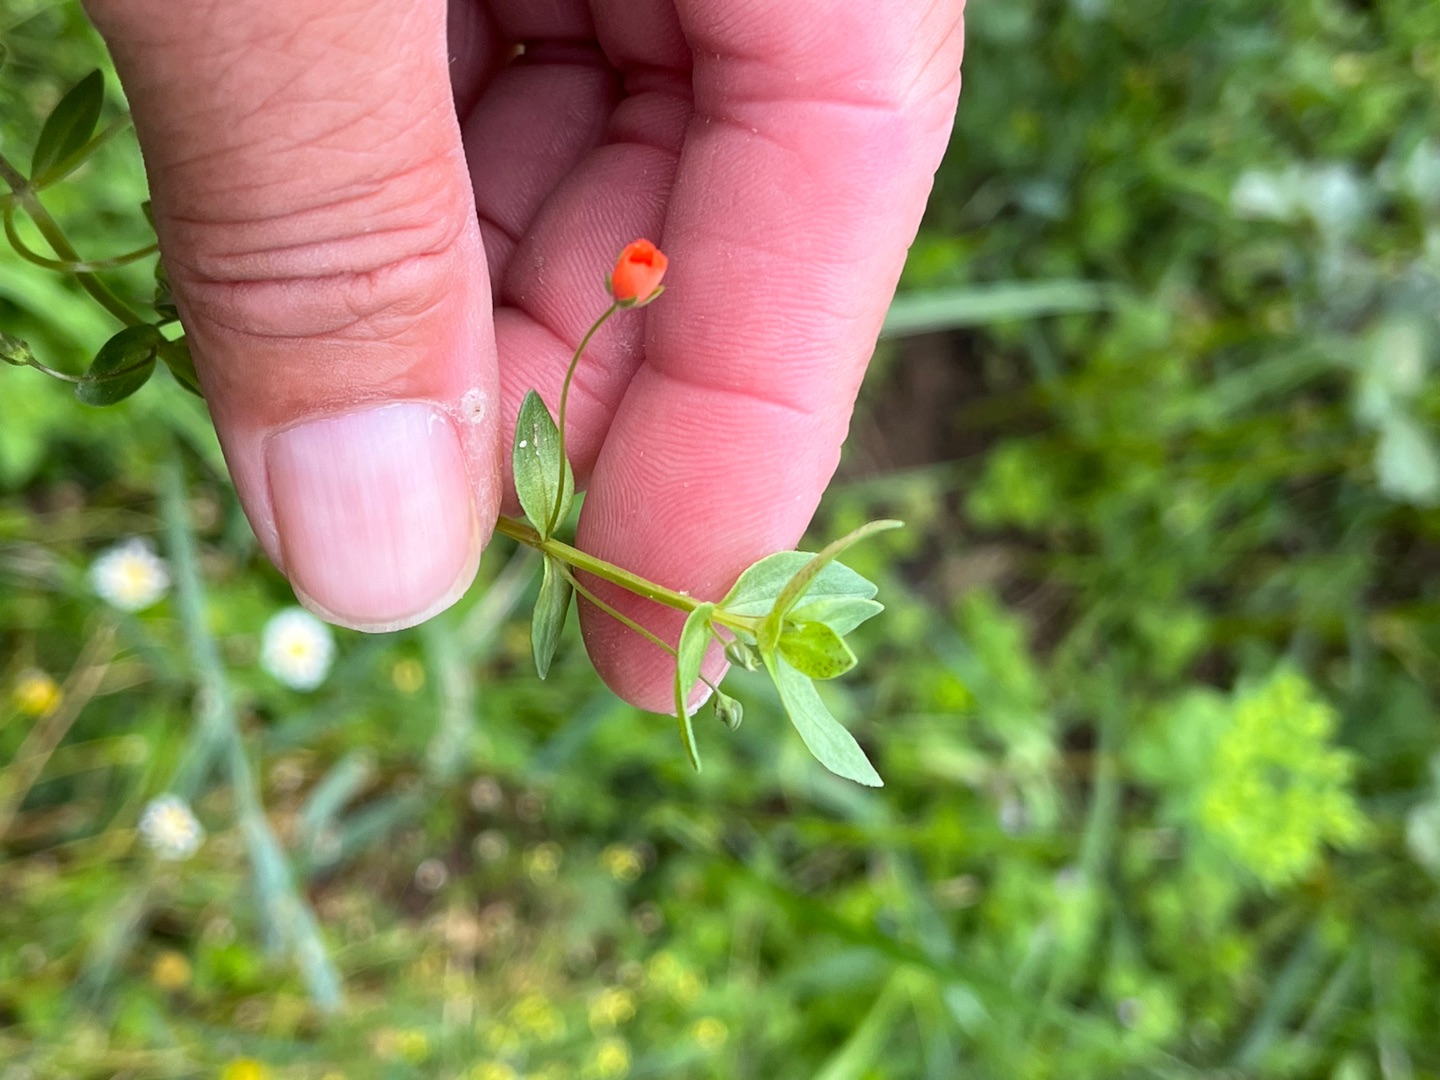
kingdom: Plantae
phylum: Tracheophyta
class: Magnoliopsida
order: Ericales
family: Primulaceae
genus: Lysimachia
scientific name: Lysimachia arvensis
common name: Rød arve
